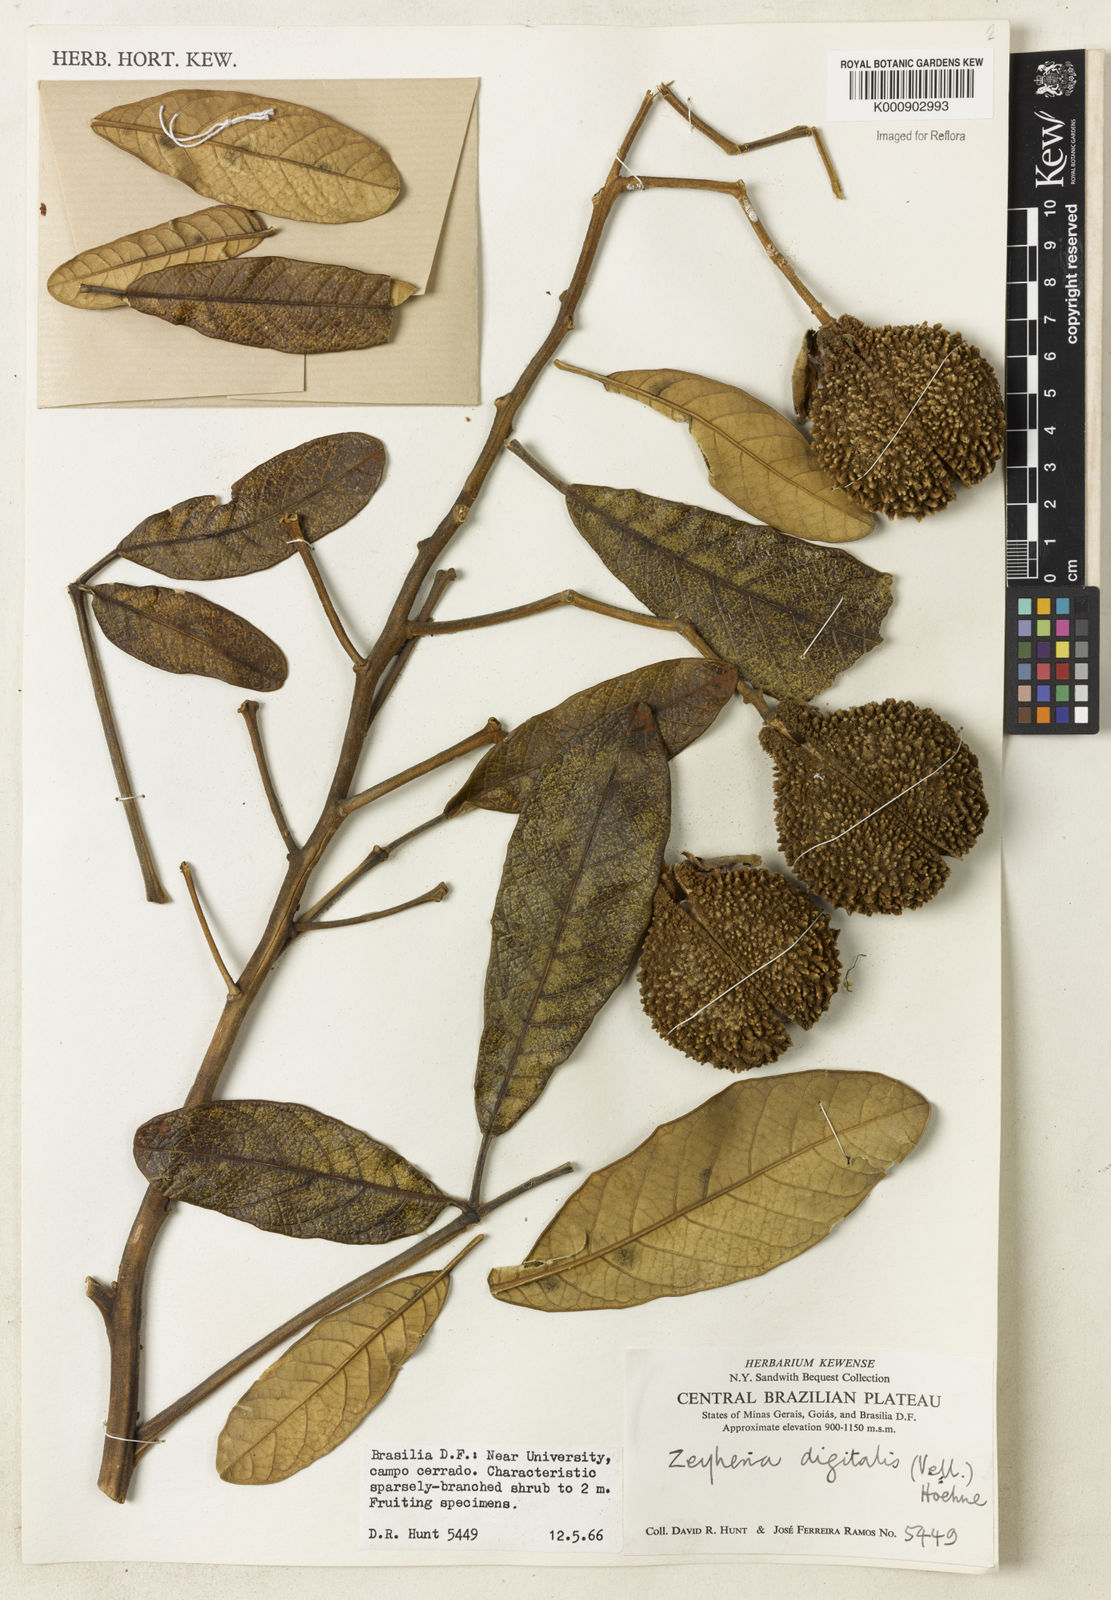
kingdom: Plantae
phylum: Tracheophyta
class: Magnoliopsida
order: Lamiales
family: Bignoniaceae
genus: Zeyheria
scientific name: Zeyheria
